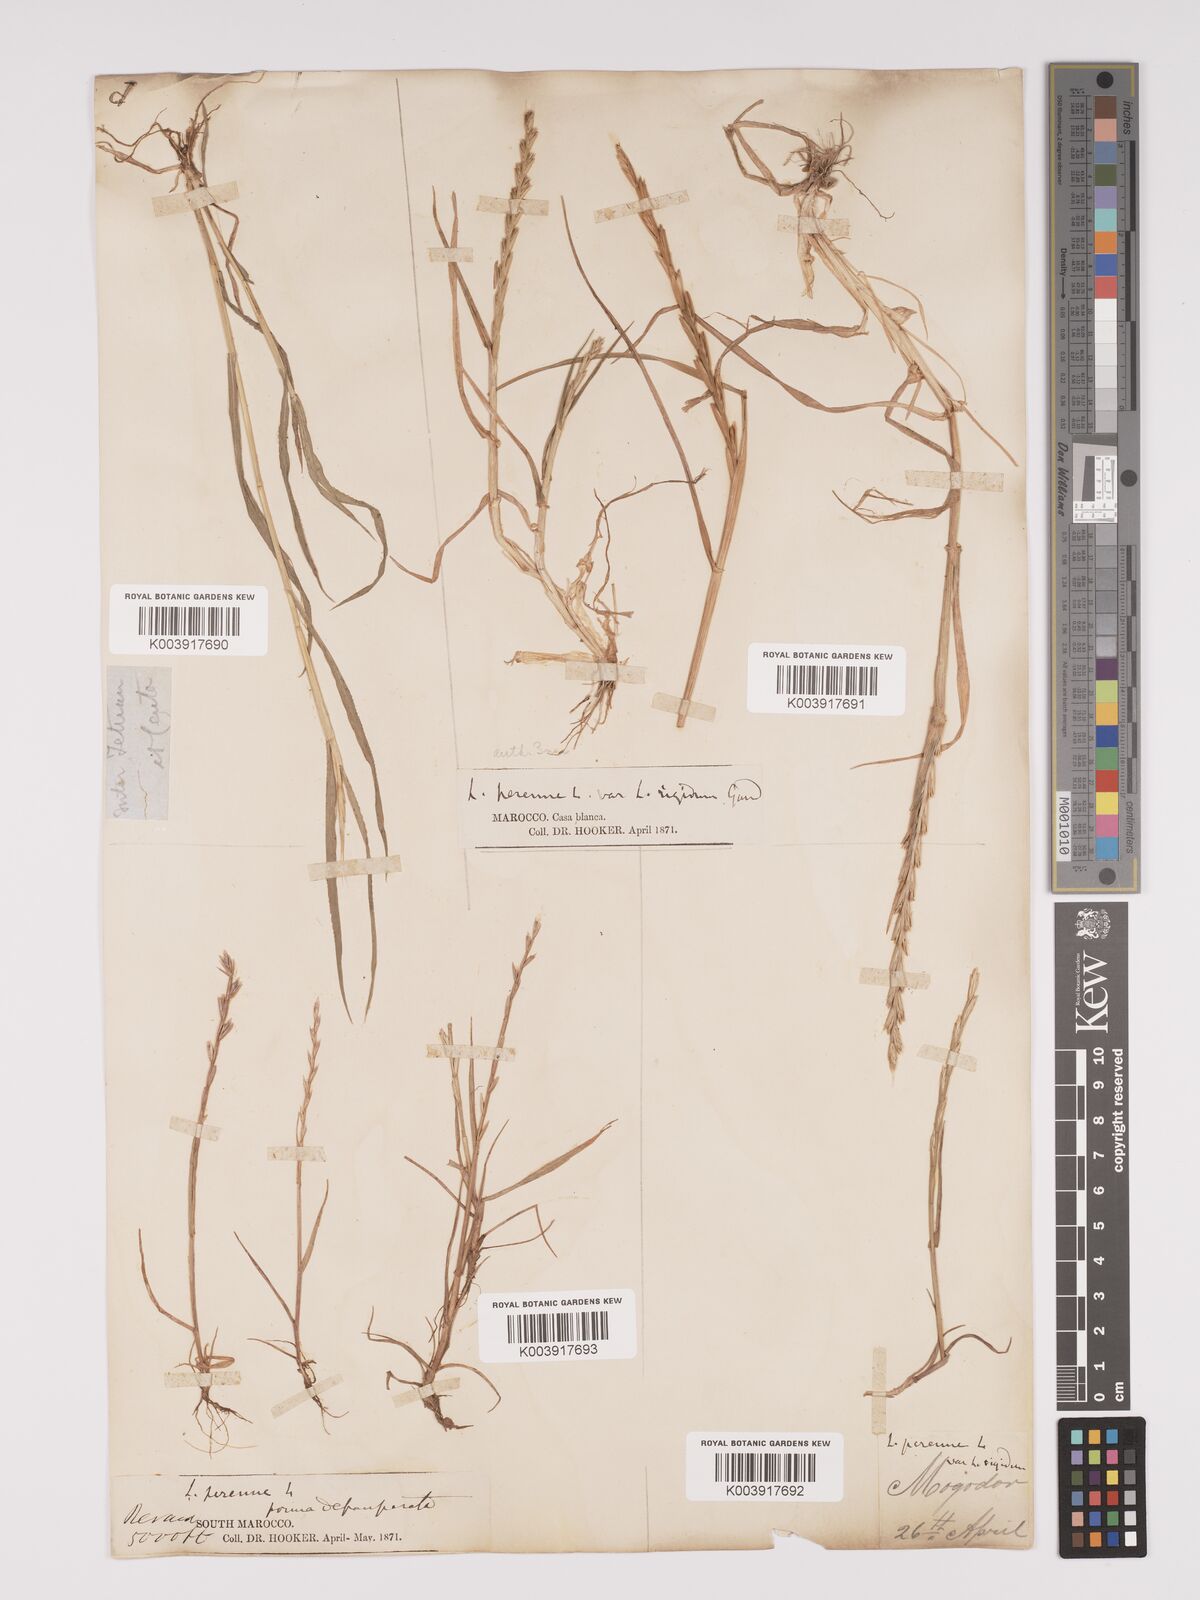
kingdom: Plantae
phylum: Tracheophyta
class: Liliopsida
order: Poales
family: Poaceae
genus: Lolium
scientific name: Lolium rigidum
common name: Wimmera ryegrass
